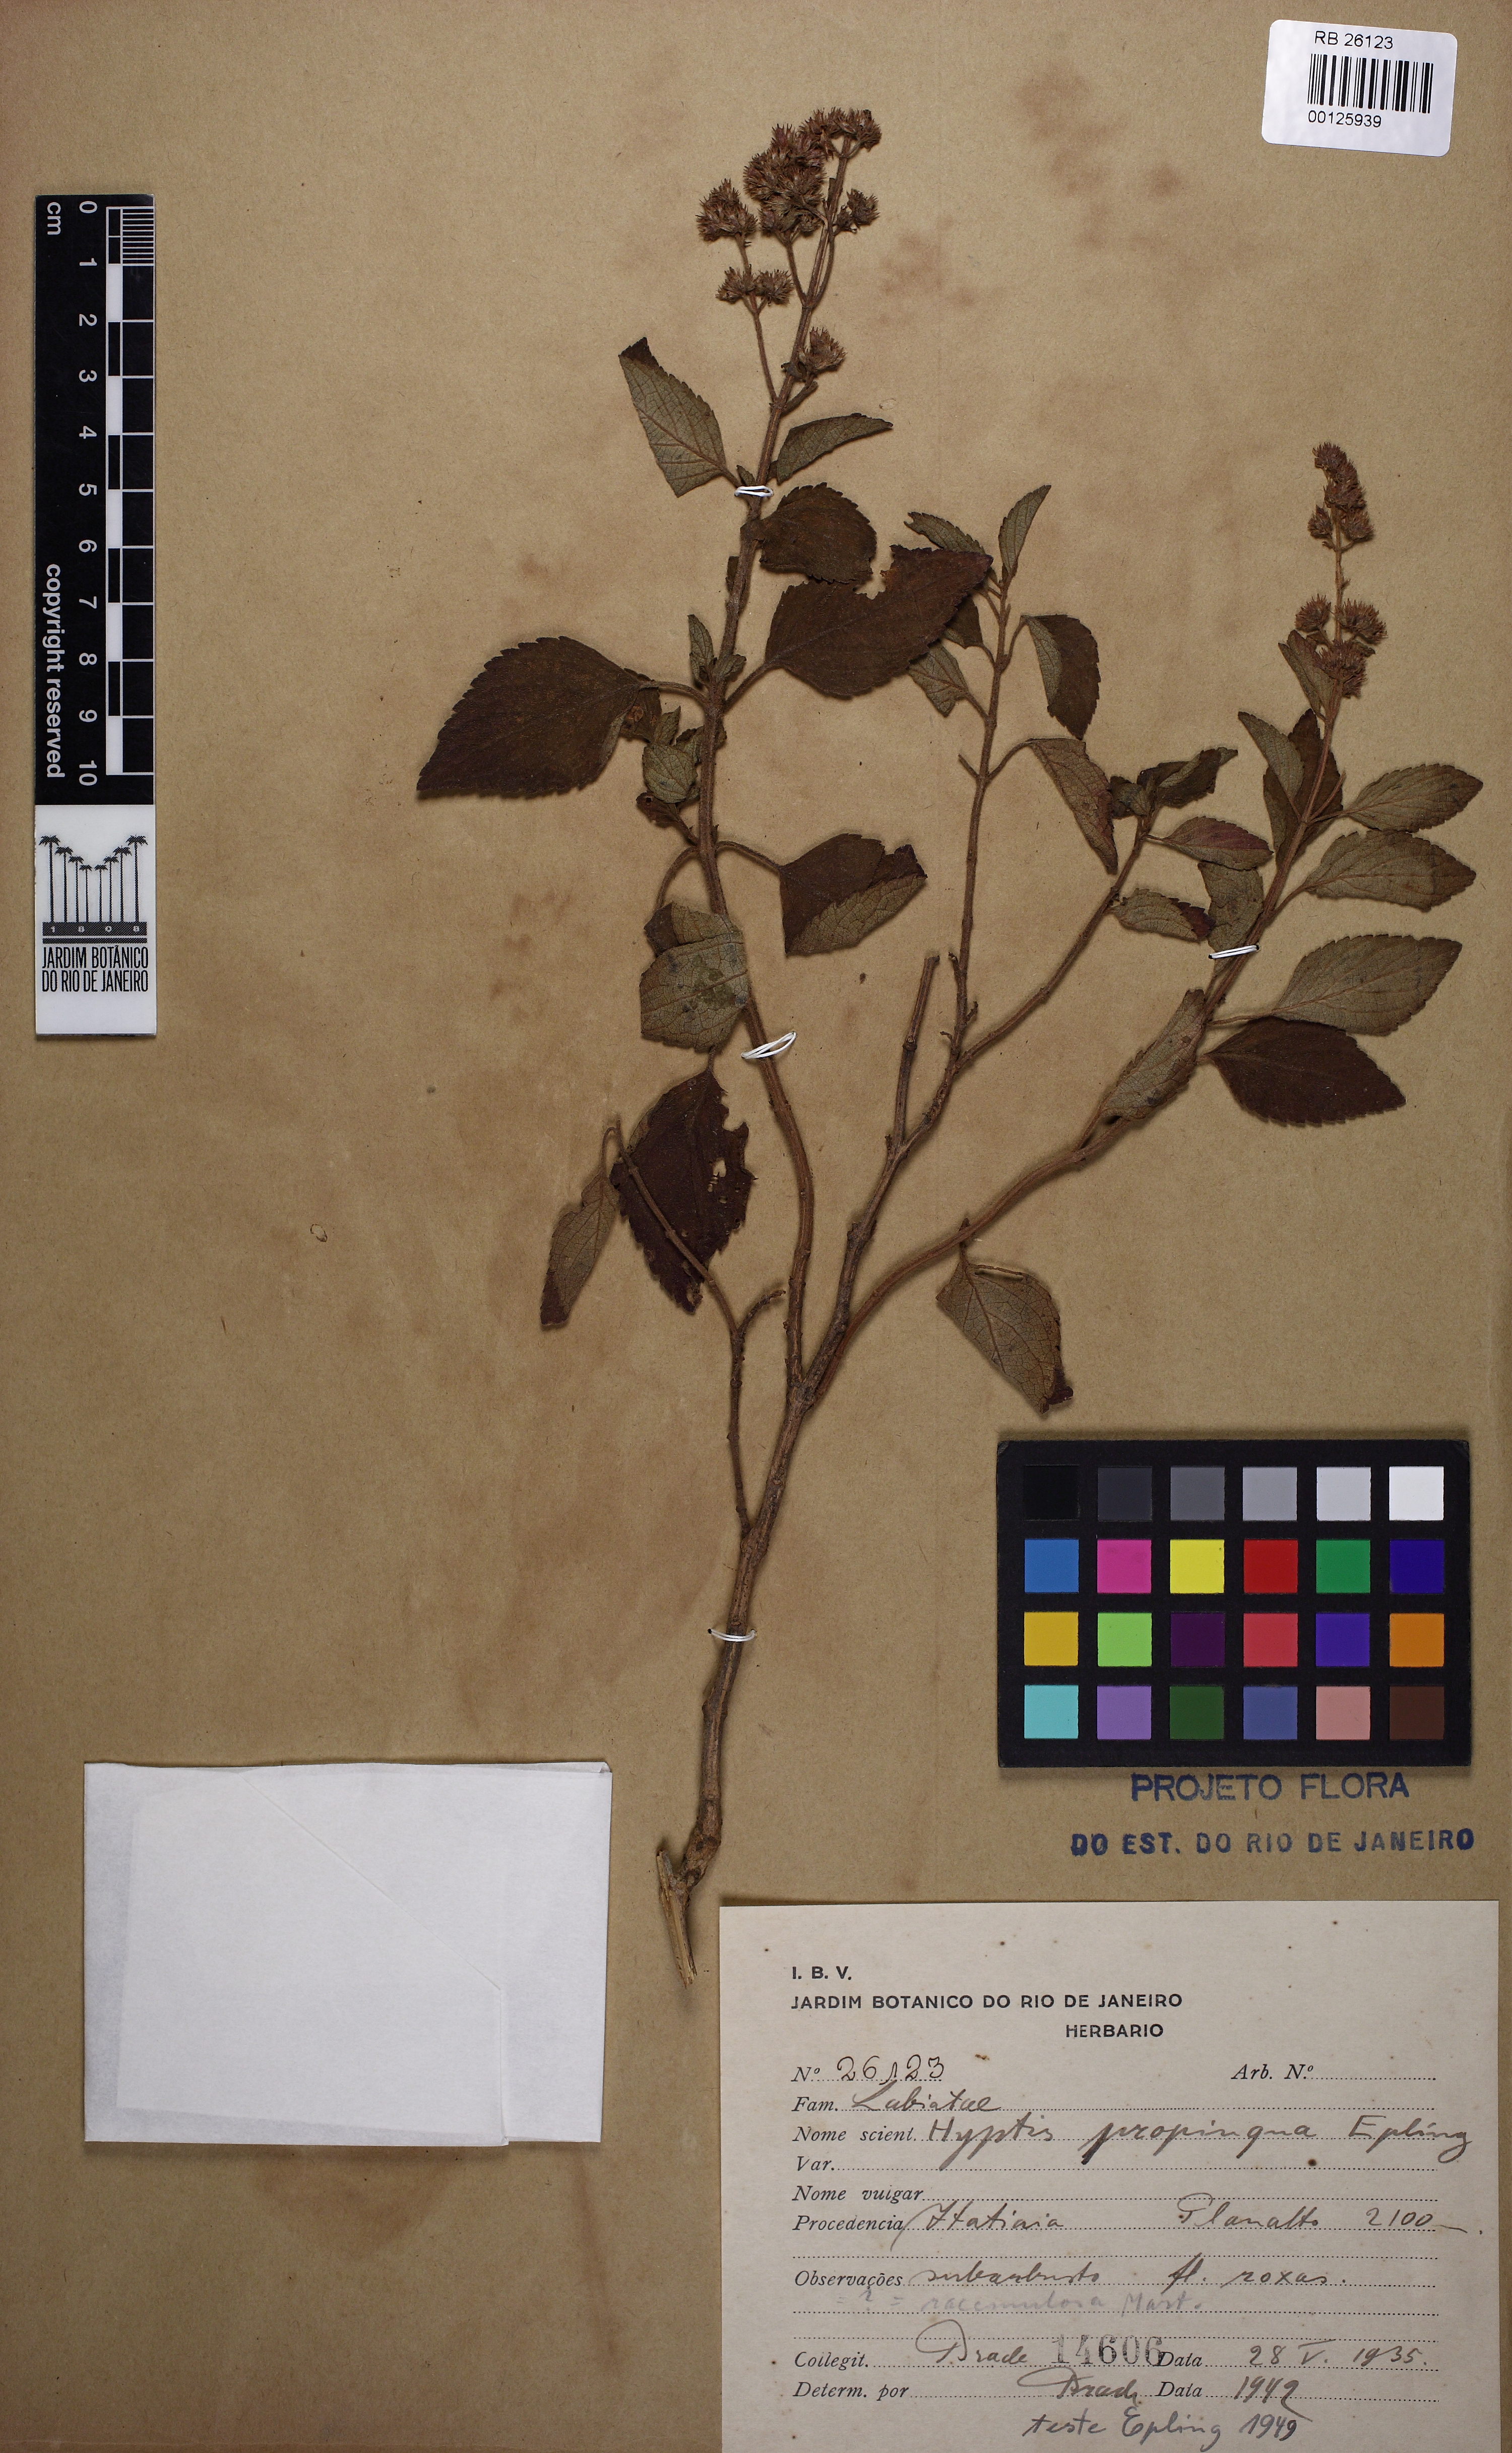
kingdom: Plantae
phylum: Tracheophyta
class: Magnoliopsida
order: Lamiales
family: Lamiaceae
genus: Cantinoa
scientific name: Cantinoa propinqua
